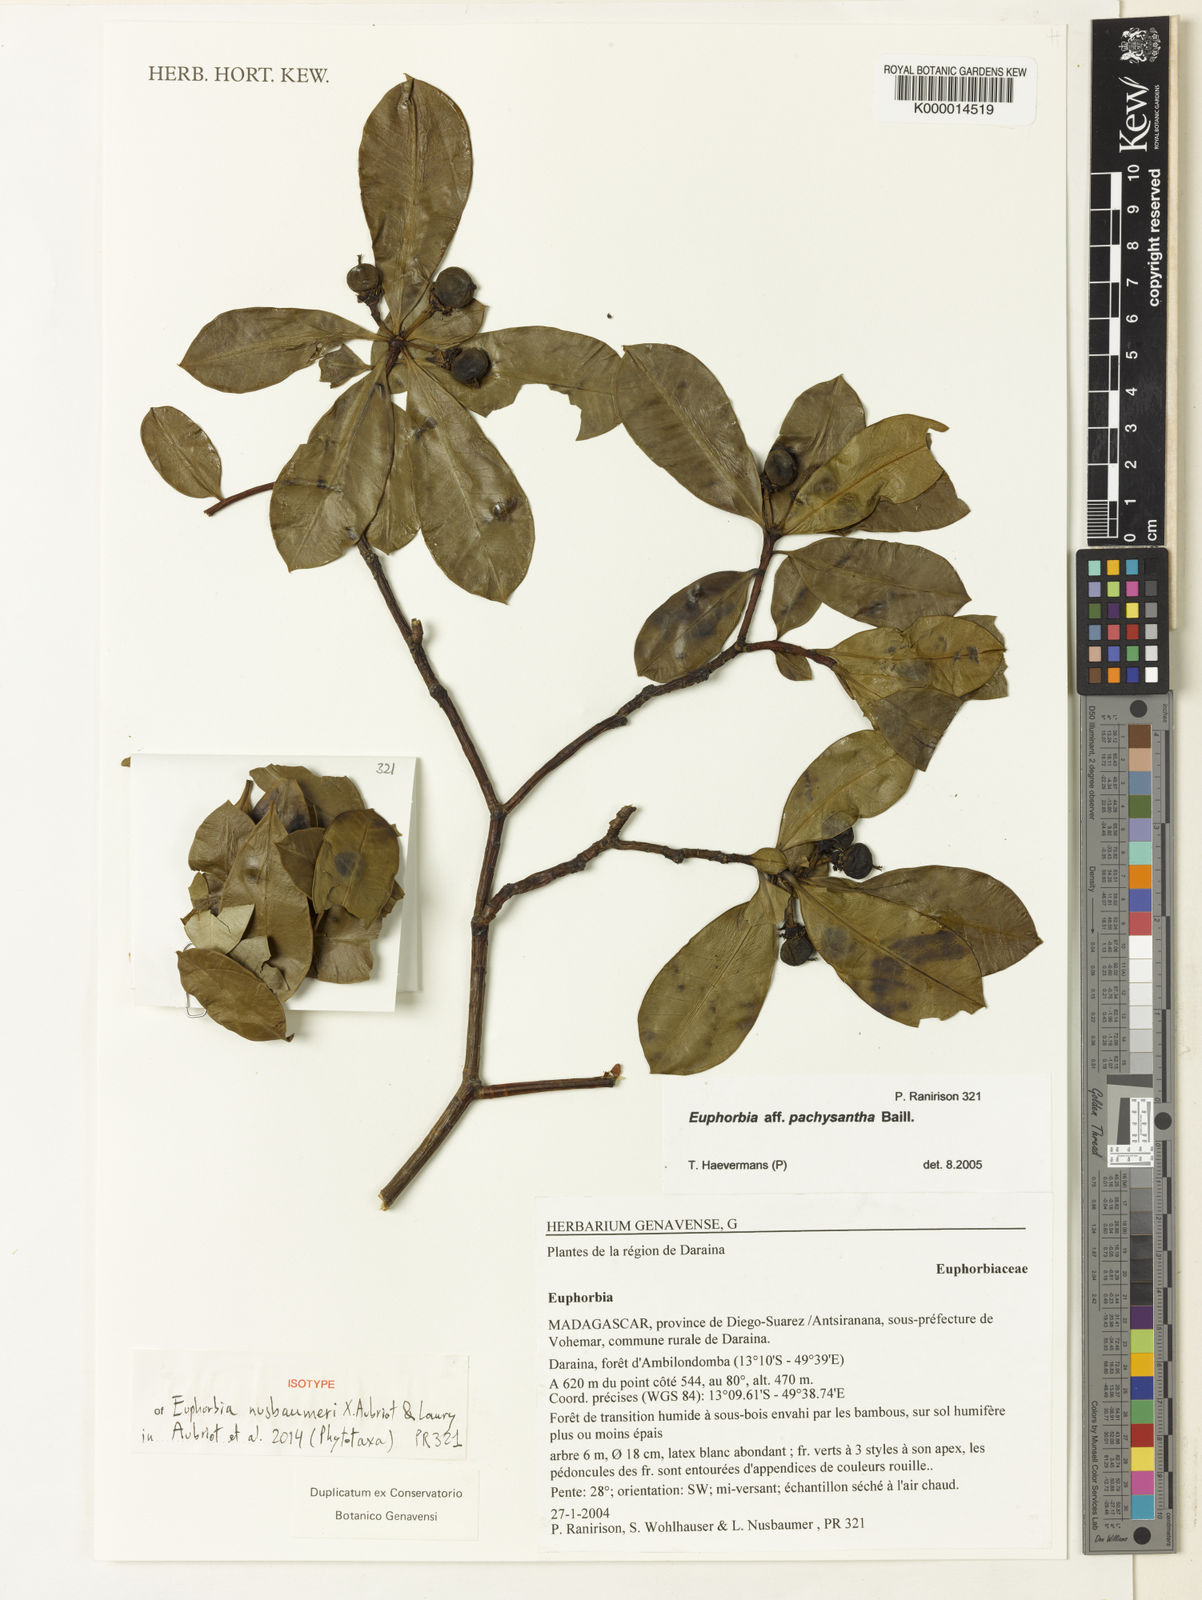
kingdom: Plantae
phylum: Tracheophyta
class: Magnoliopsida
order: Malpighiales
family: Euphorbiaceae
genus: Euphorbia
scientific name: Euphorbia nusbaumeri
